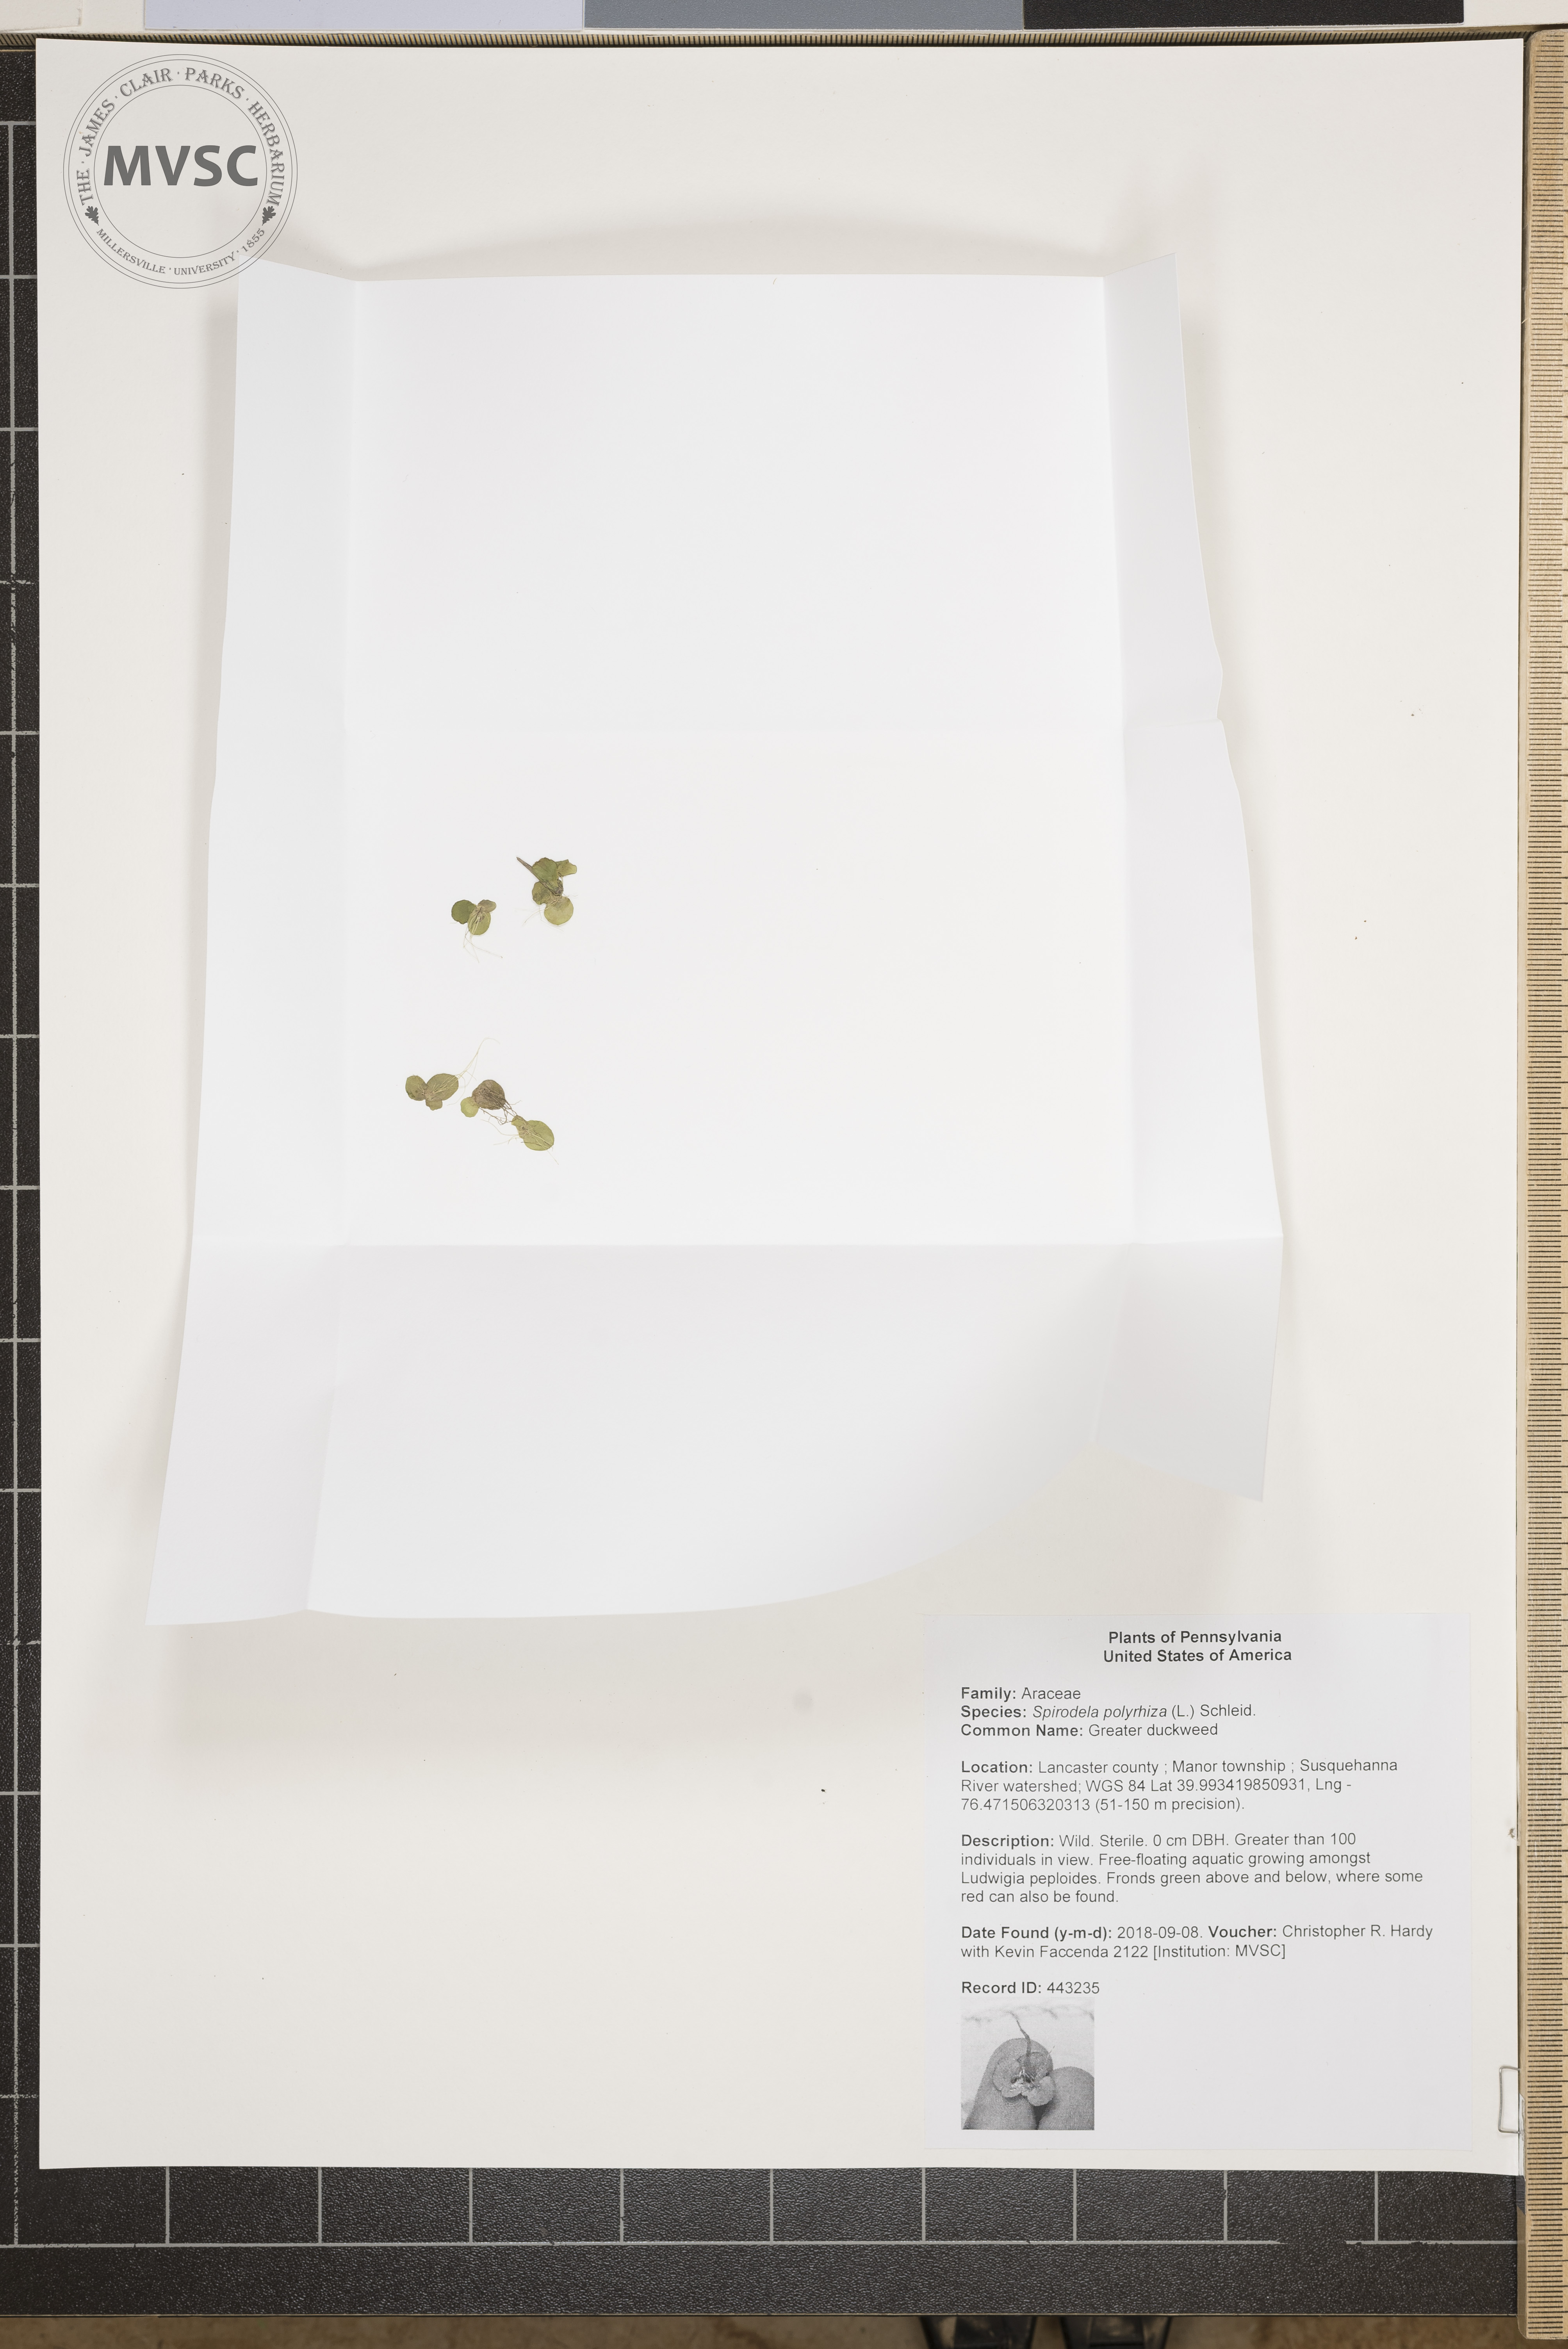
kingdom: Plantae
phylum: Tracheophyta
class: Liliopsida
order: Alismatales
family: Araceae
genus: Spirodela
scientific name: Spirodela polyrhiza
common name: Greater duckweed
